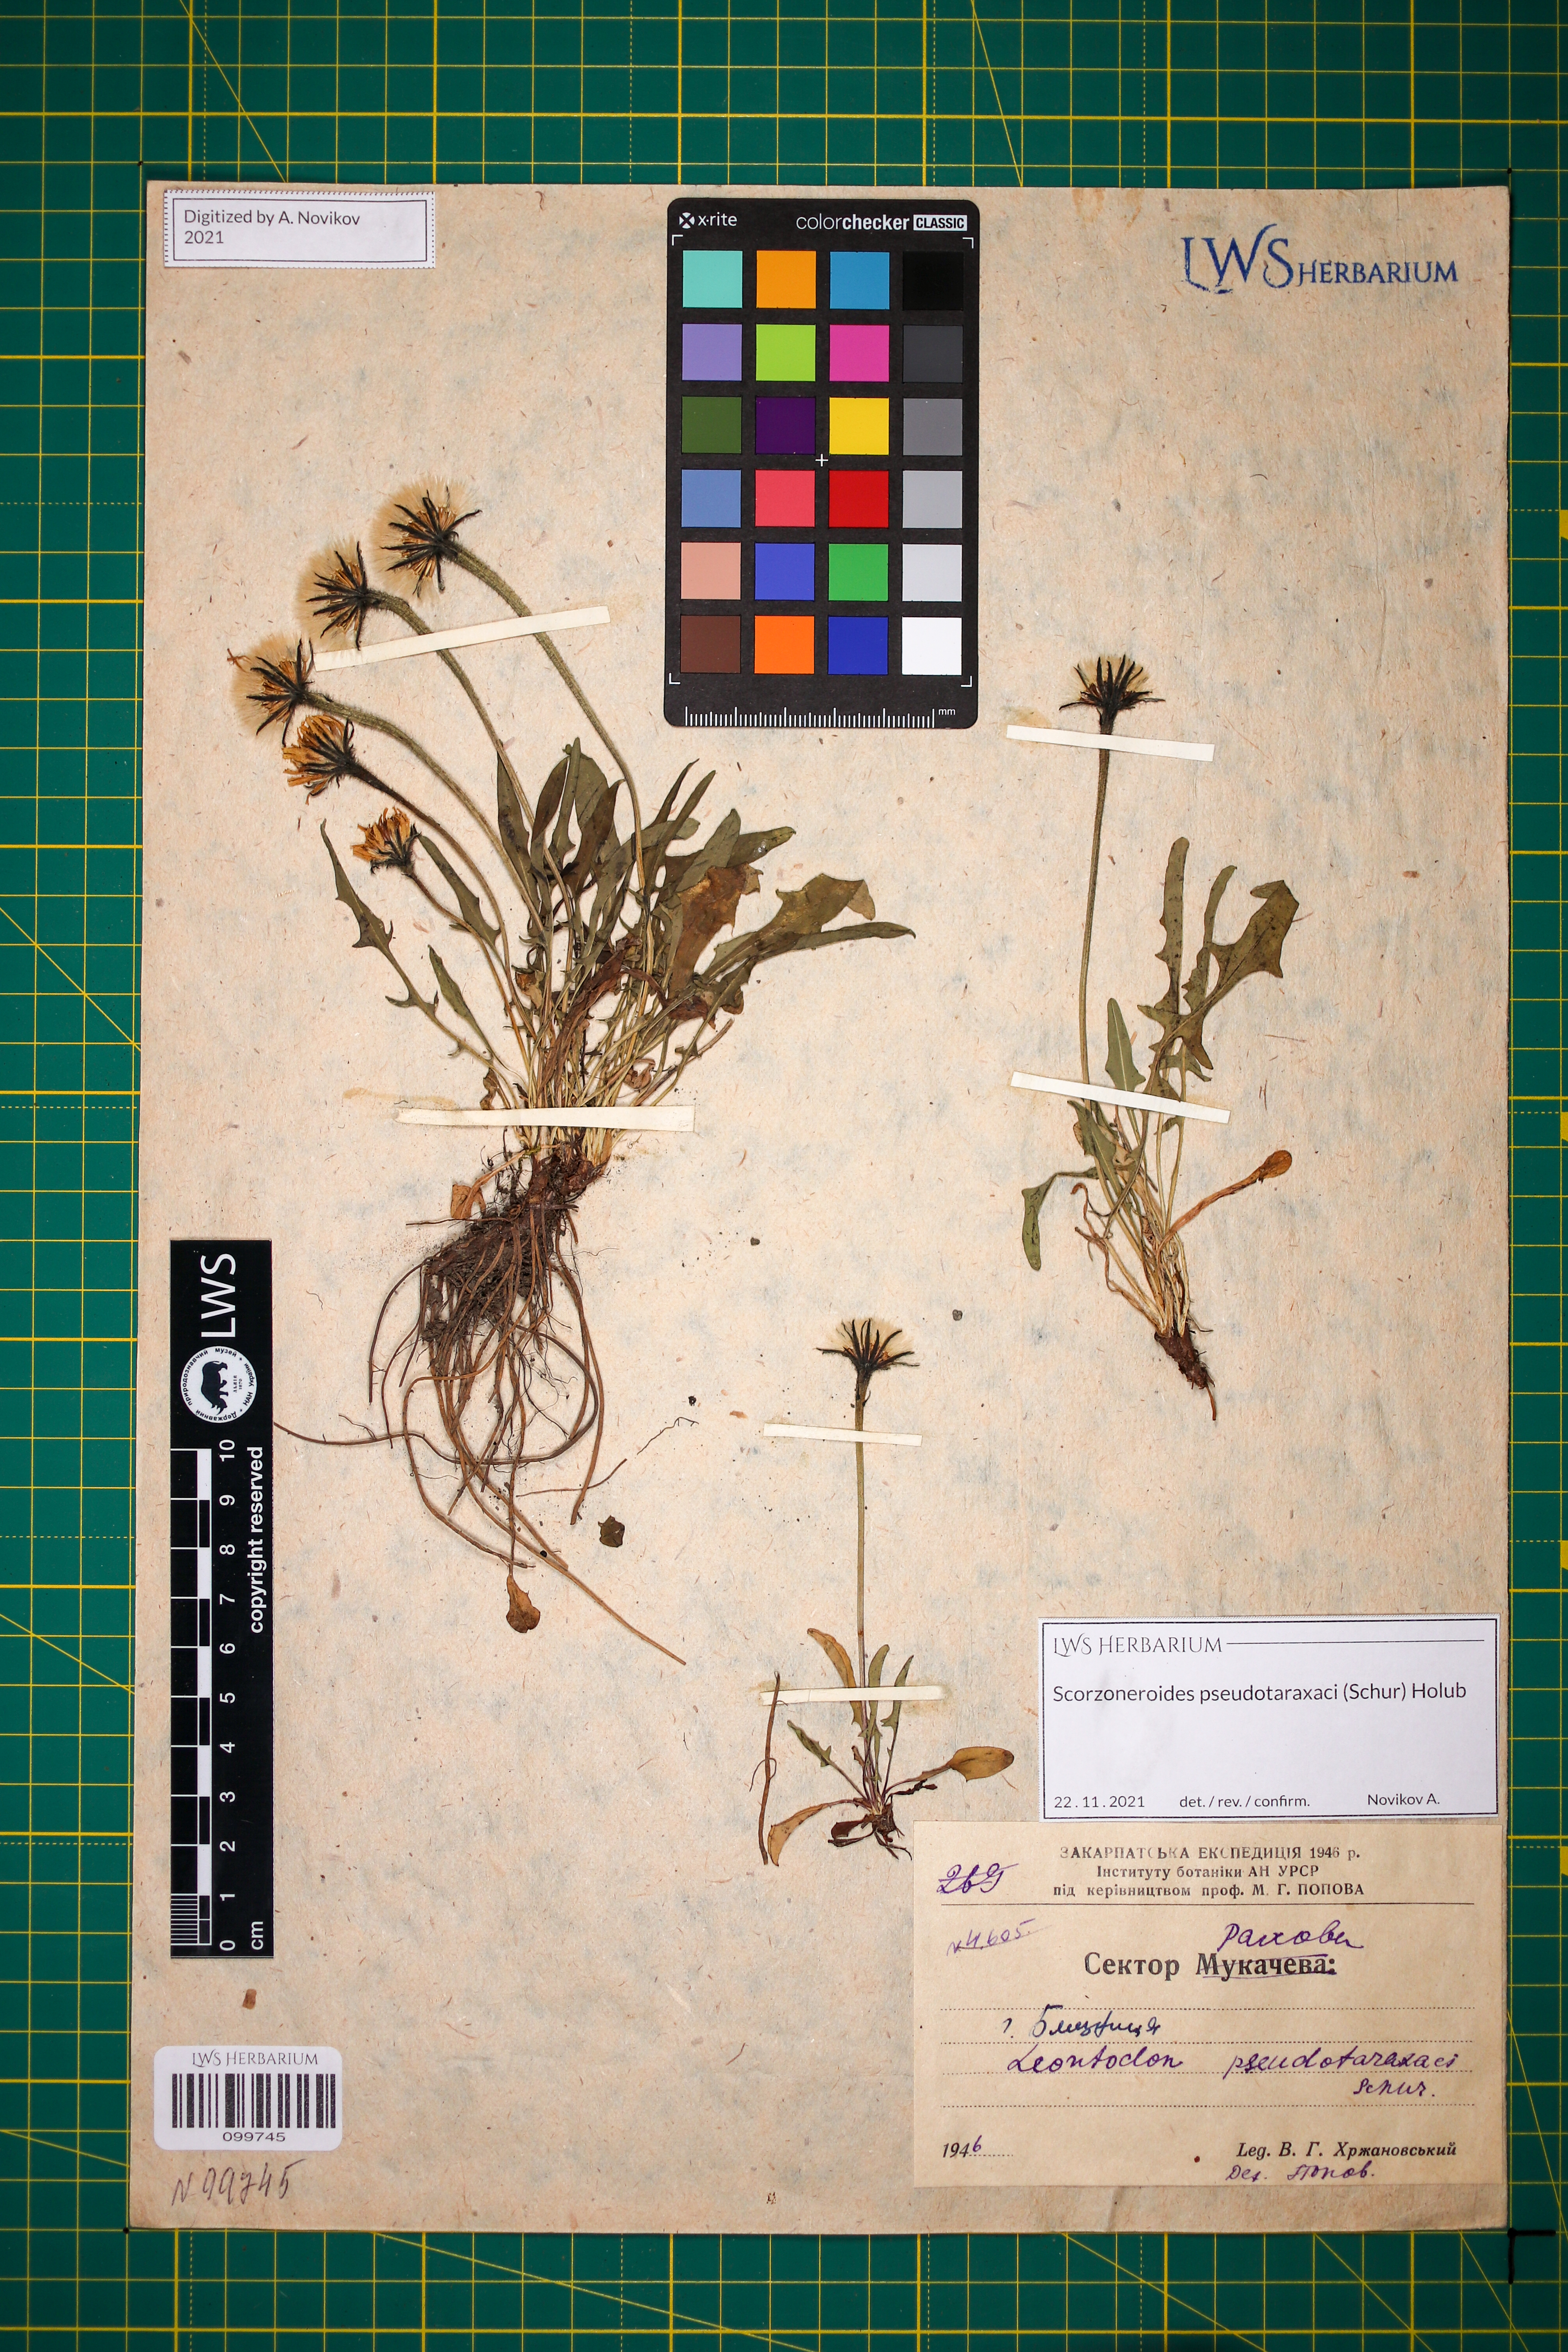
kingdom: Plantae
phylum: Tracheophyta
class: Magnoliopsida
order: Asterales
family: Asteraceae
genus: Scorzoneroides
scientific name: Scorzoneroides pseudotaraxaci
